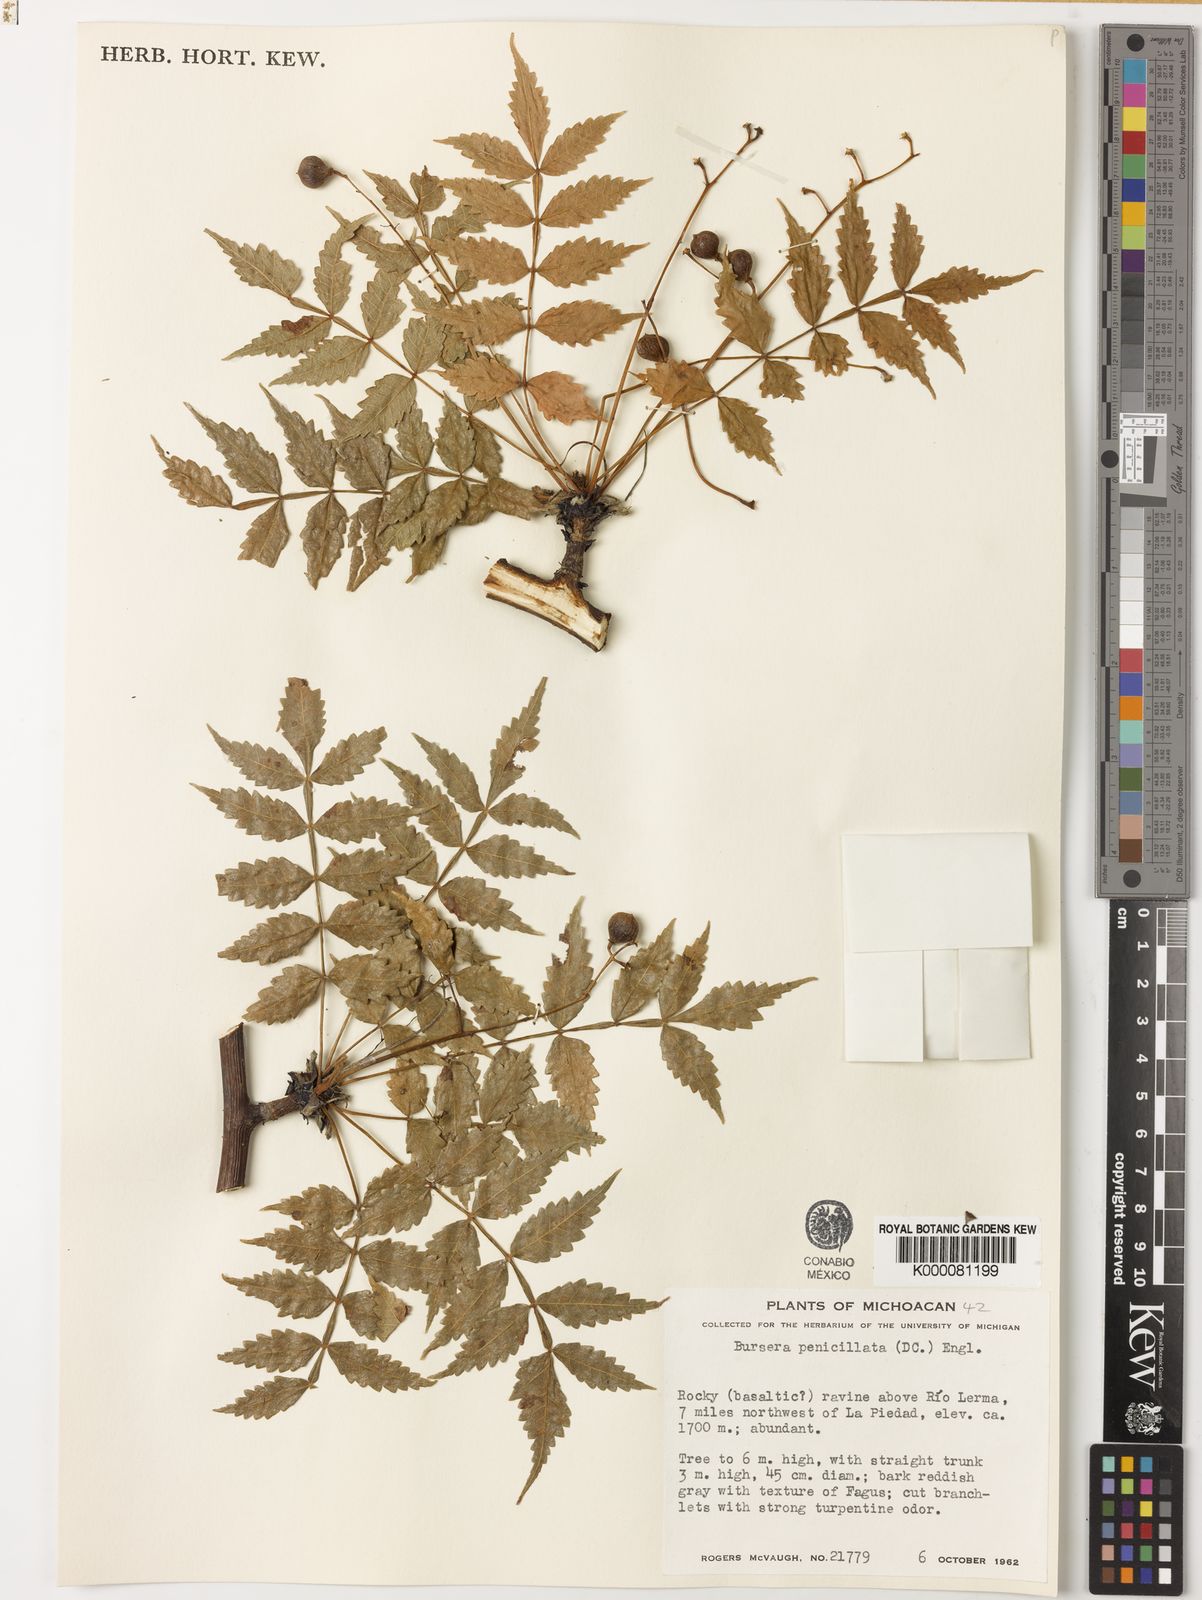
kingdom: Plantae
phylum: Tracheophyta
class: Magnoliopsida
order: Sapindales
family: Burseraceae
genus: Bursera
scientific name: Bursera penicillata
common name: Indian-lavender
